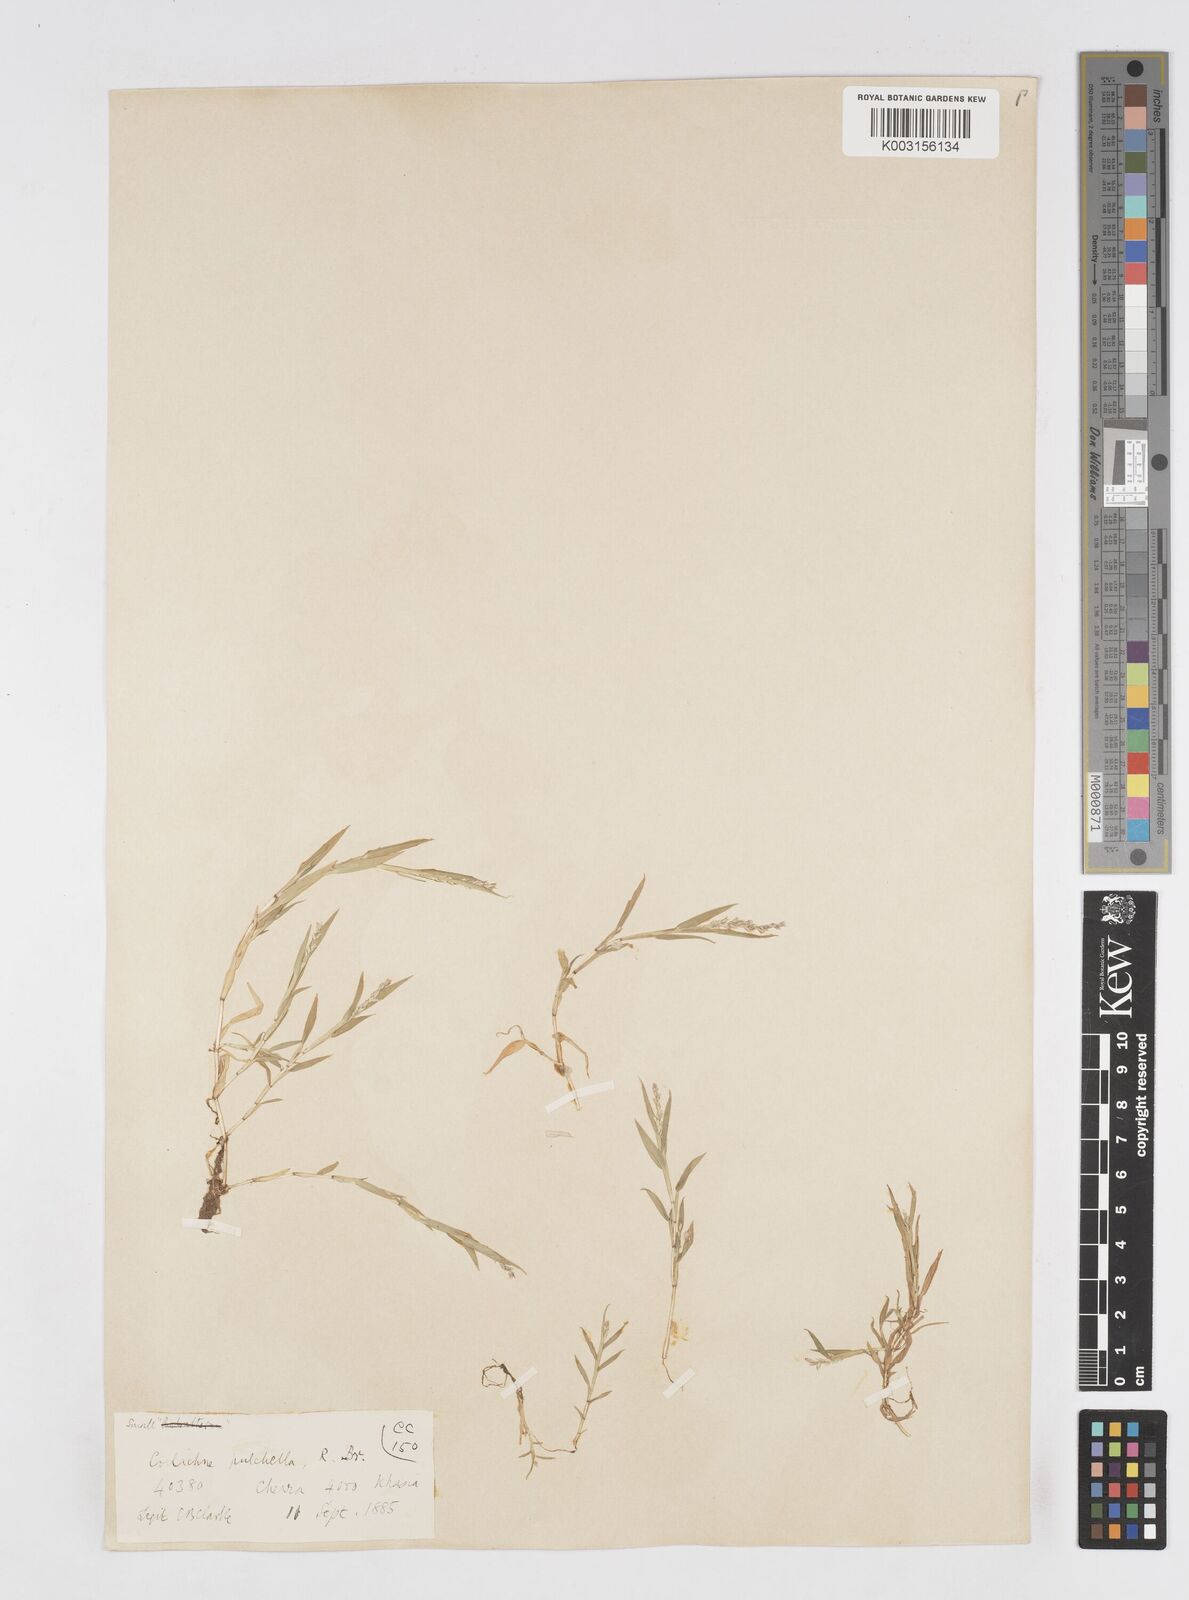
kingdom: Plantae
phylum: Tracheophyta
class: Liliopsida
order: Poales
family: Poaceae
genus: Coelachne
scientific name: Coelachne simpliciuscula
